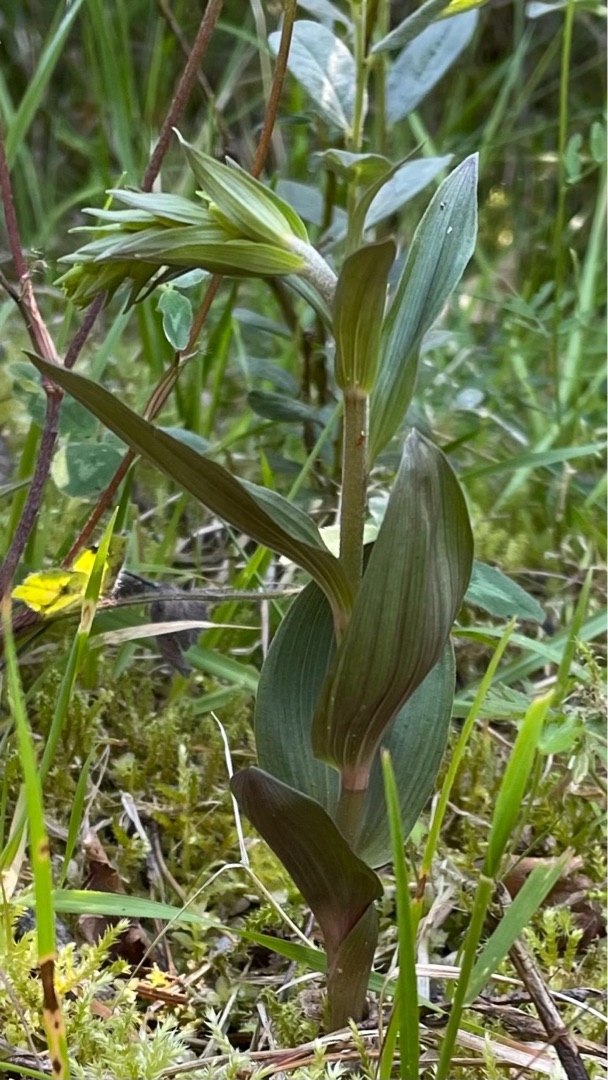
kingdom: Plantae
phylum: Tracheophyta
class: Liliopsida
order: Asparagales
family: Orchidaceae
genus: Epipactis
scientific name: Epipactis
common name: Hullæbeslægten
